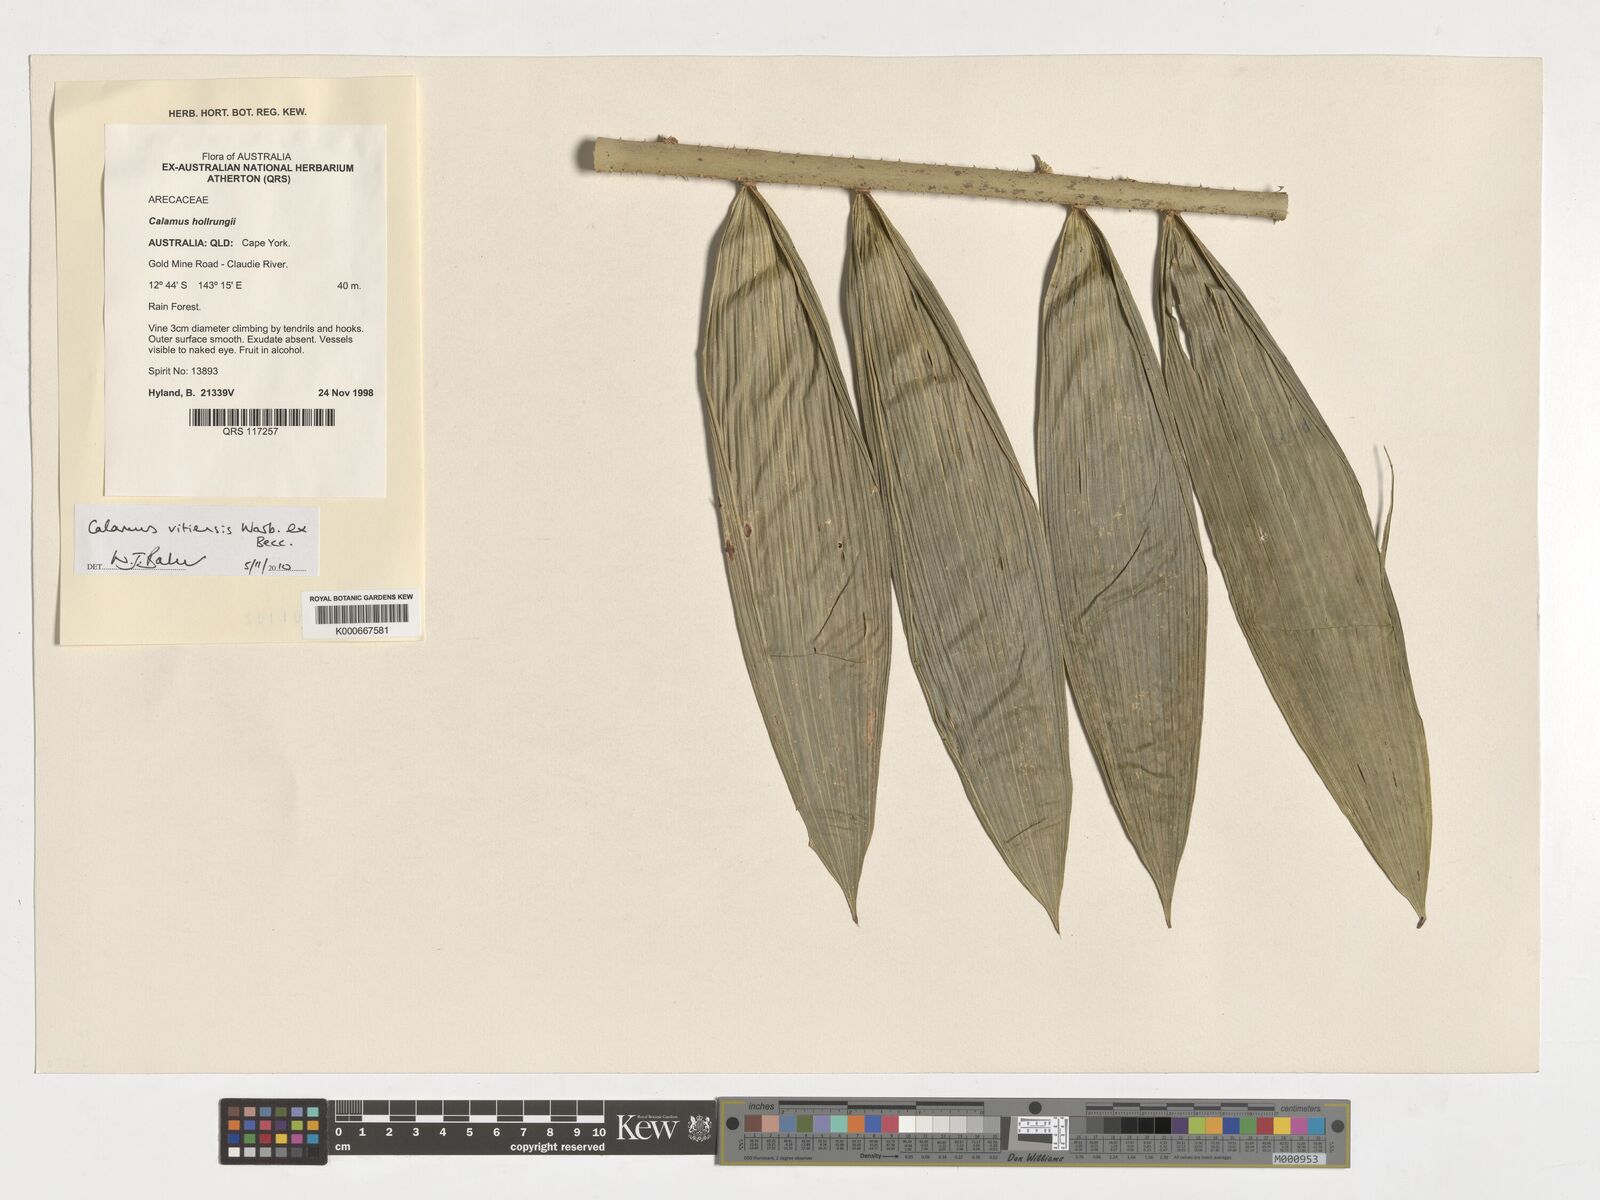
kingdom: Plantae
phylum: Tracheophyta
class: Liliopsida
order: Arecales
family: Arecaceae
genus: Calamus
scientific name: Calamus vitiensis
